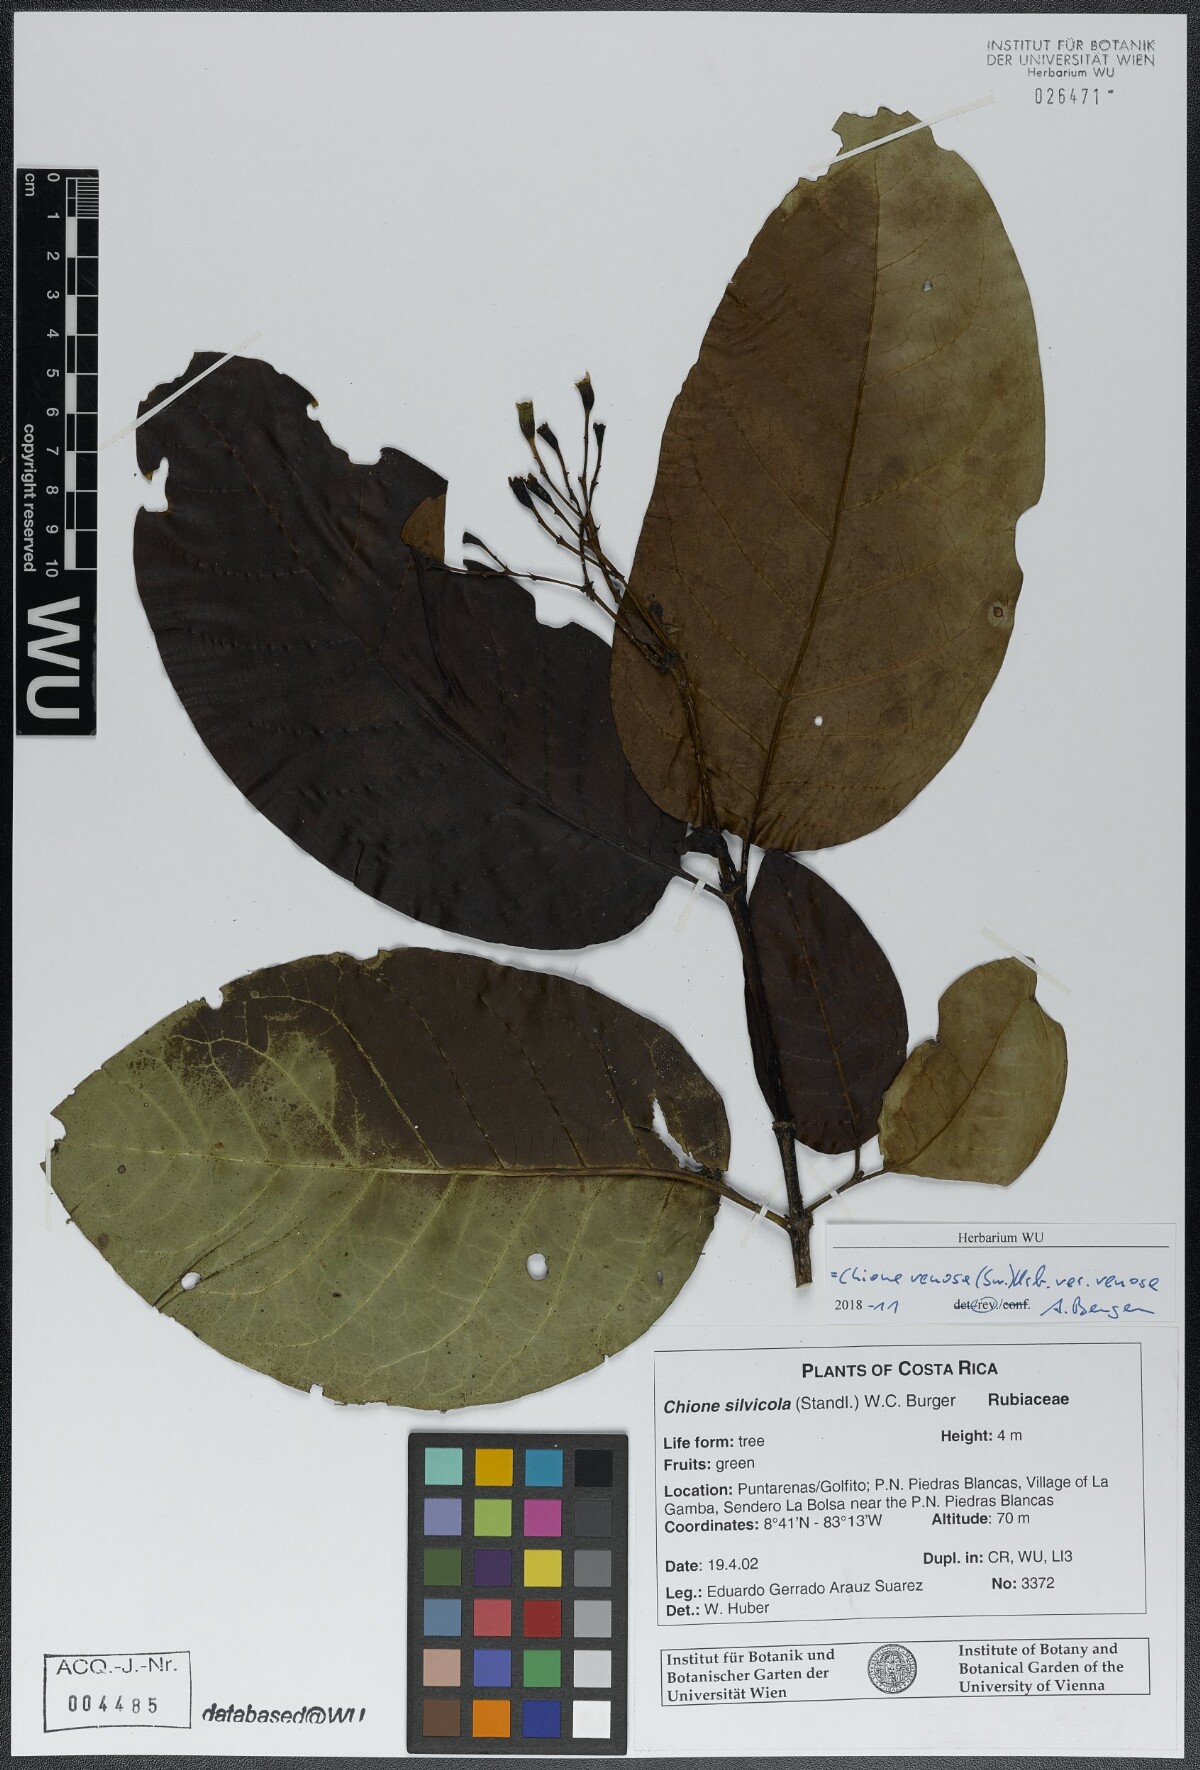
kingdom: Plantae
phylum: Tracheophyta
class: Magnoliopsida
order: Gentianales
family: Rubiaceae
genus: Chione
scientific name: Chione venosa
